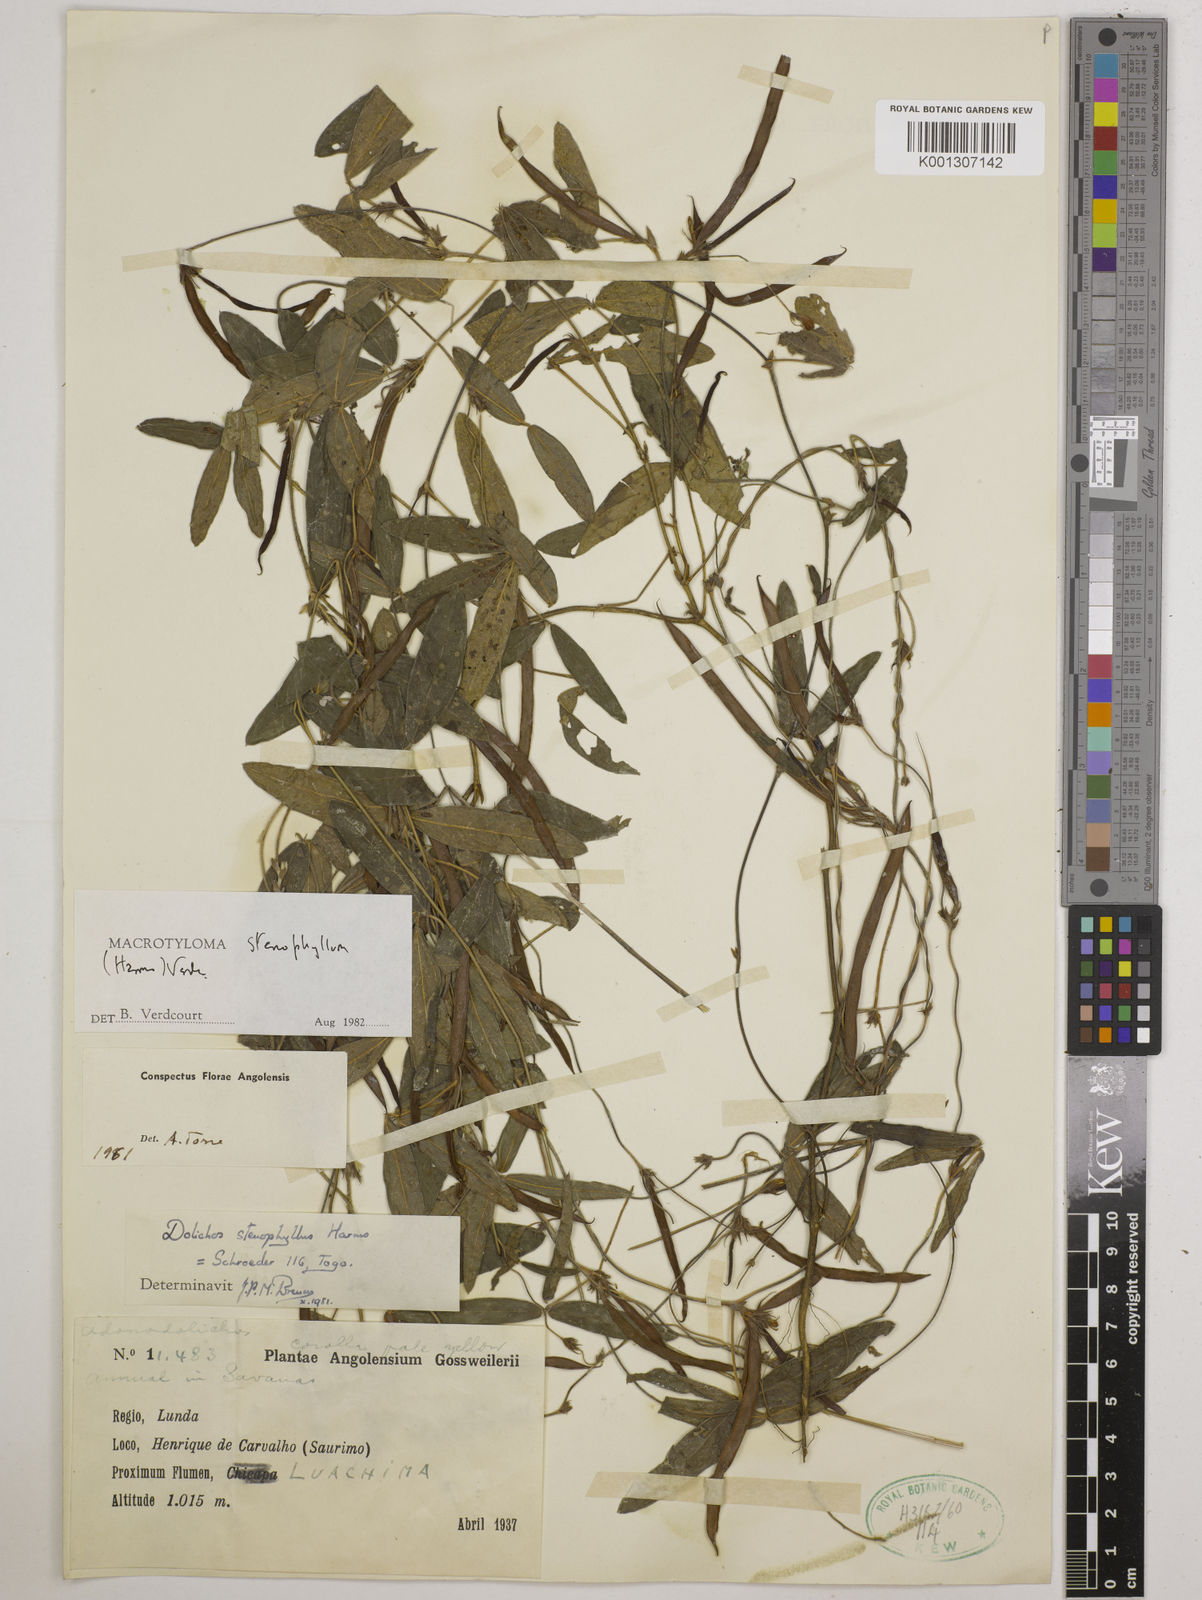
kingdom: Plantae
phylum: Tracheophyta
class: Magnoliopsida
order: Fabales
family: Fabaceae
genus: Macrotyloma
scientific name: Macrotyloma stenophyllum
